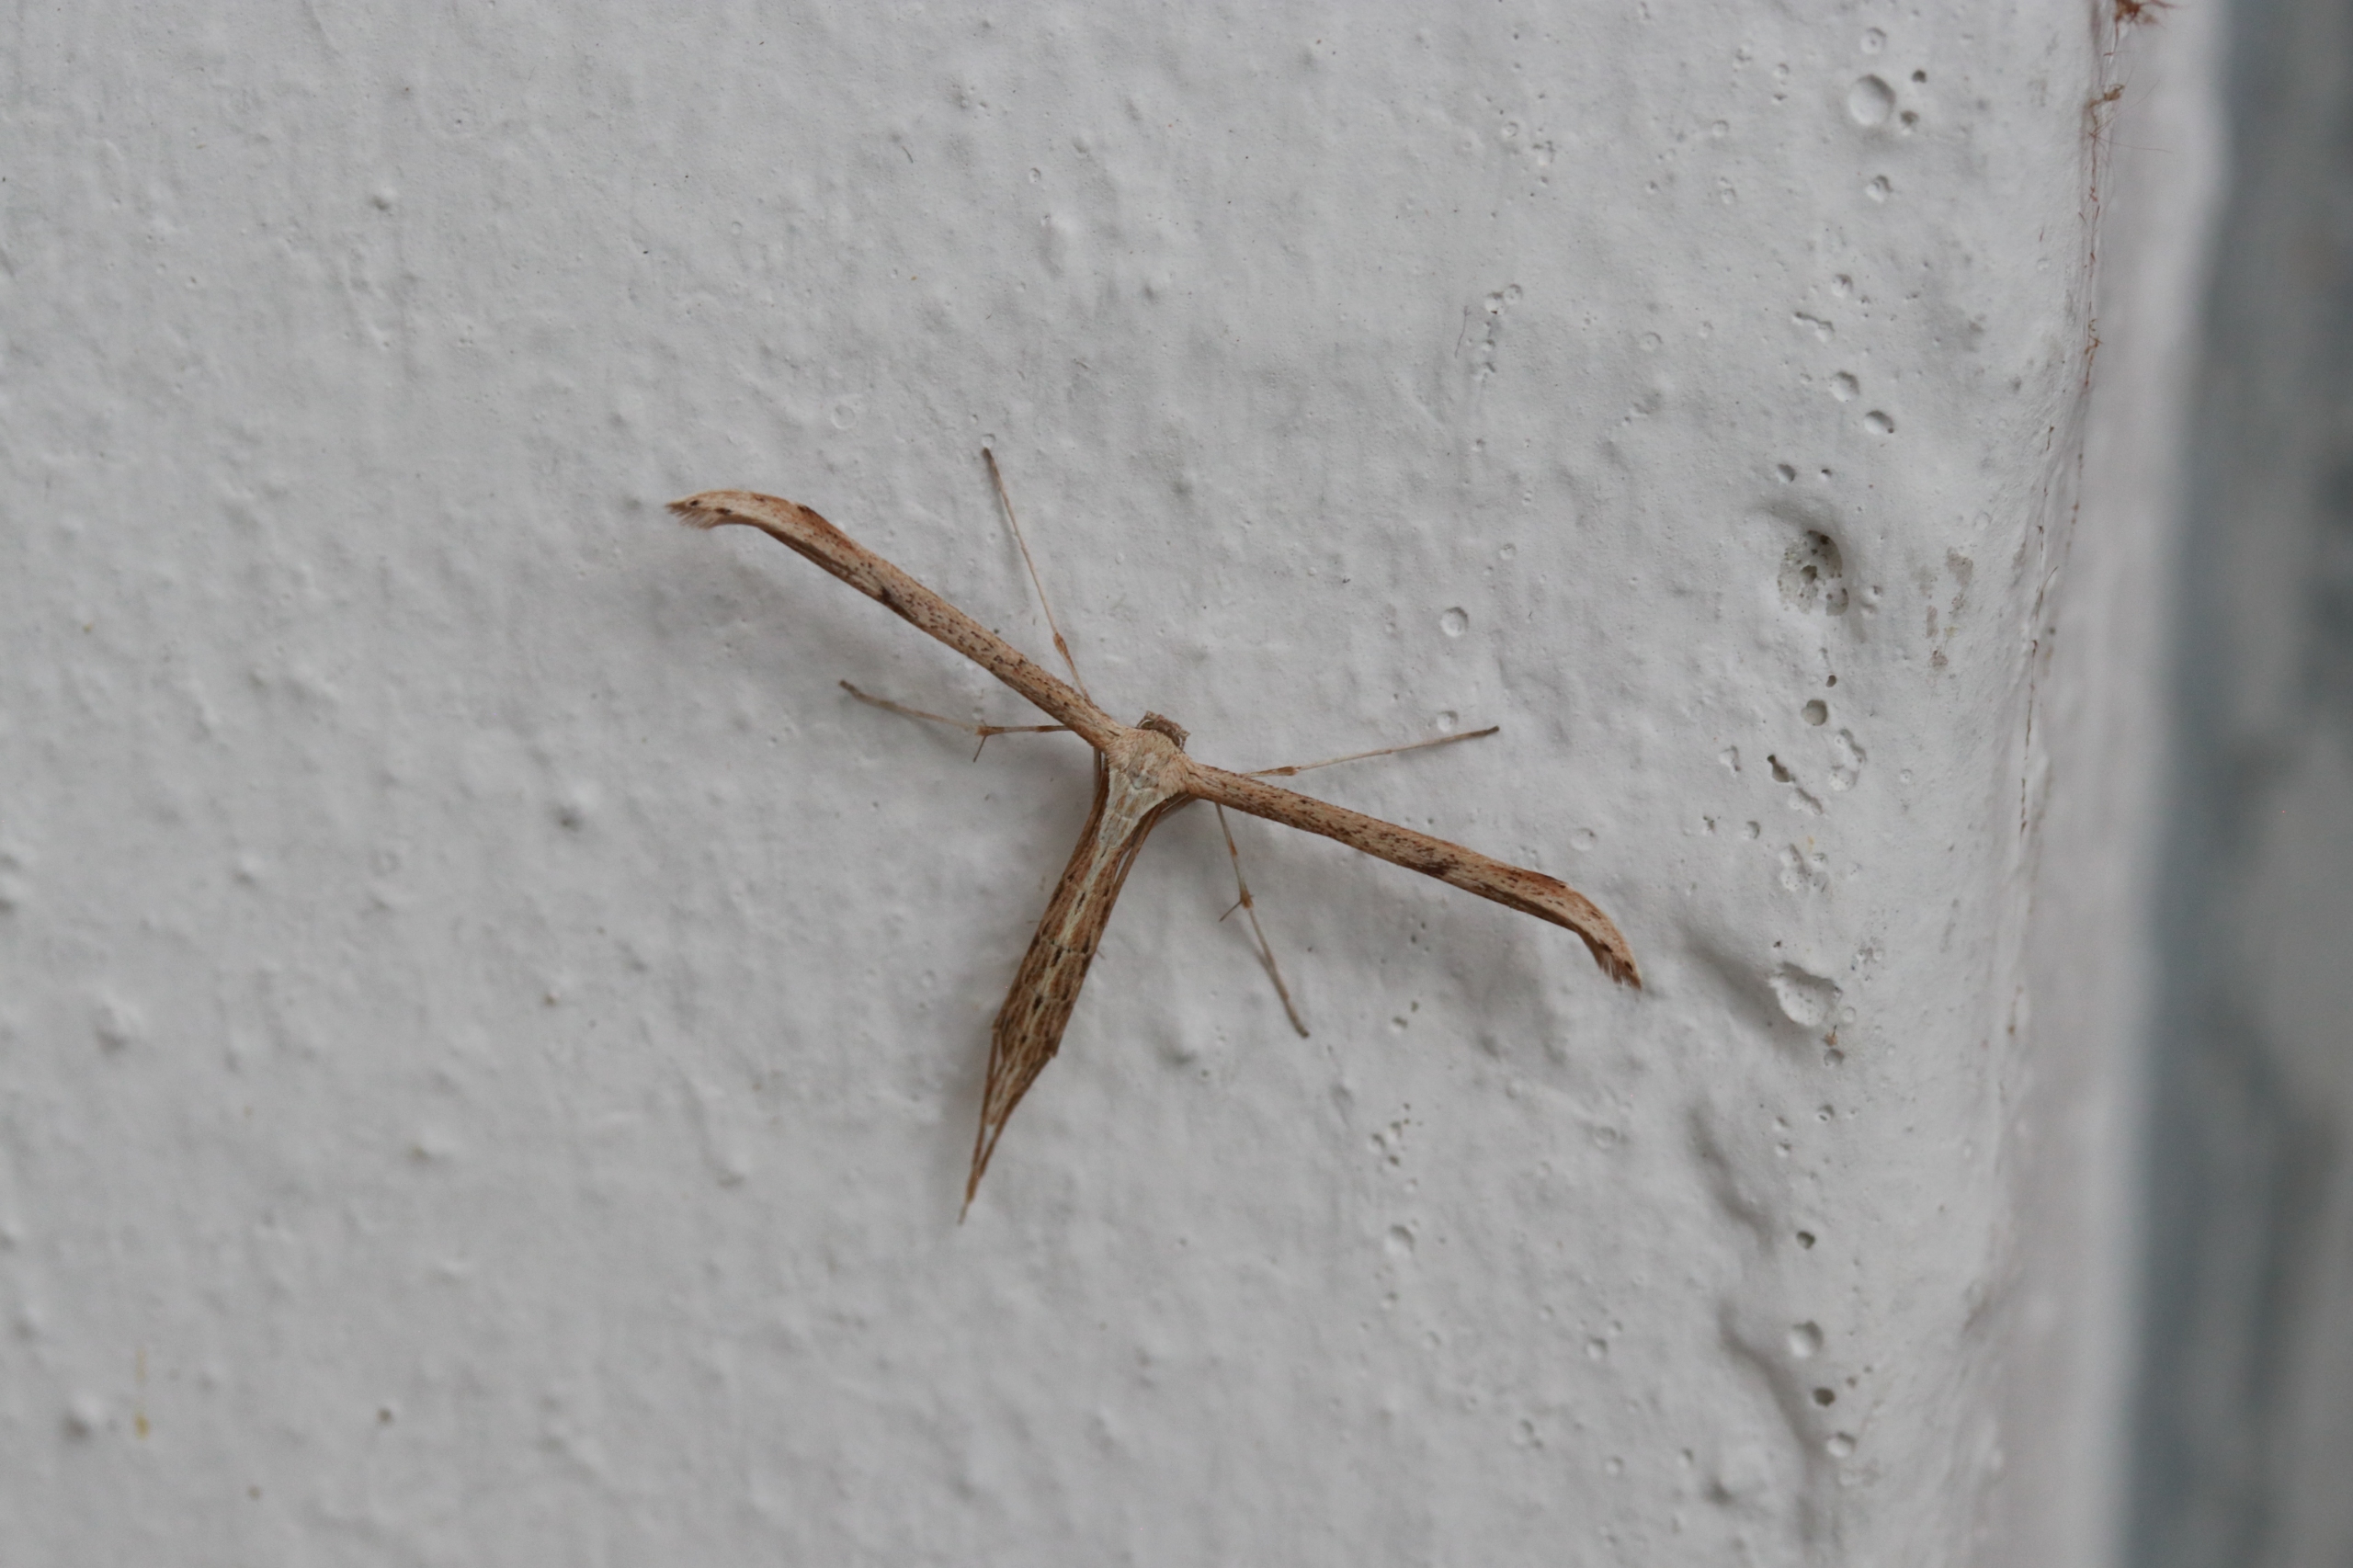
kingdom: Animalia
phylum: Arthropoda
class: Insecta
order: Lepidoptera
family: Pterophoridae
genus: Emmelina
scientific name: Emmelina monodactyla
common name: Snerlefjermøl
